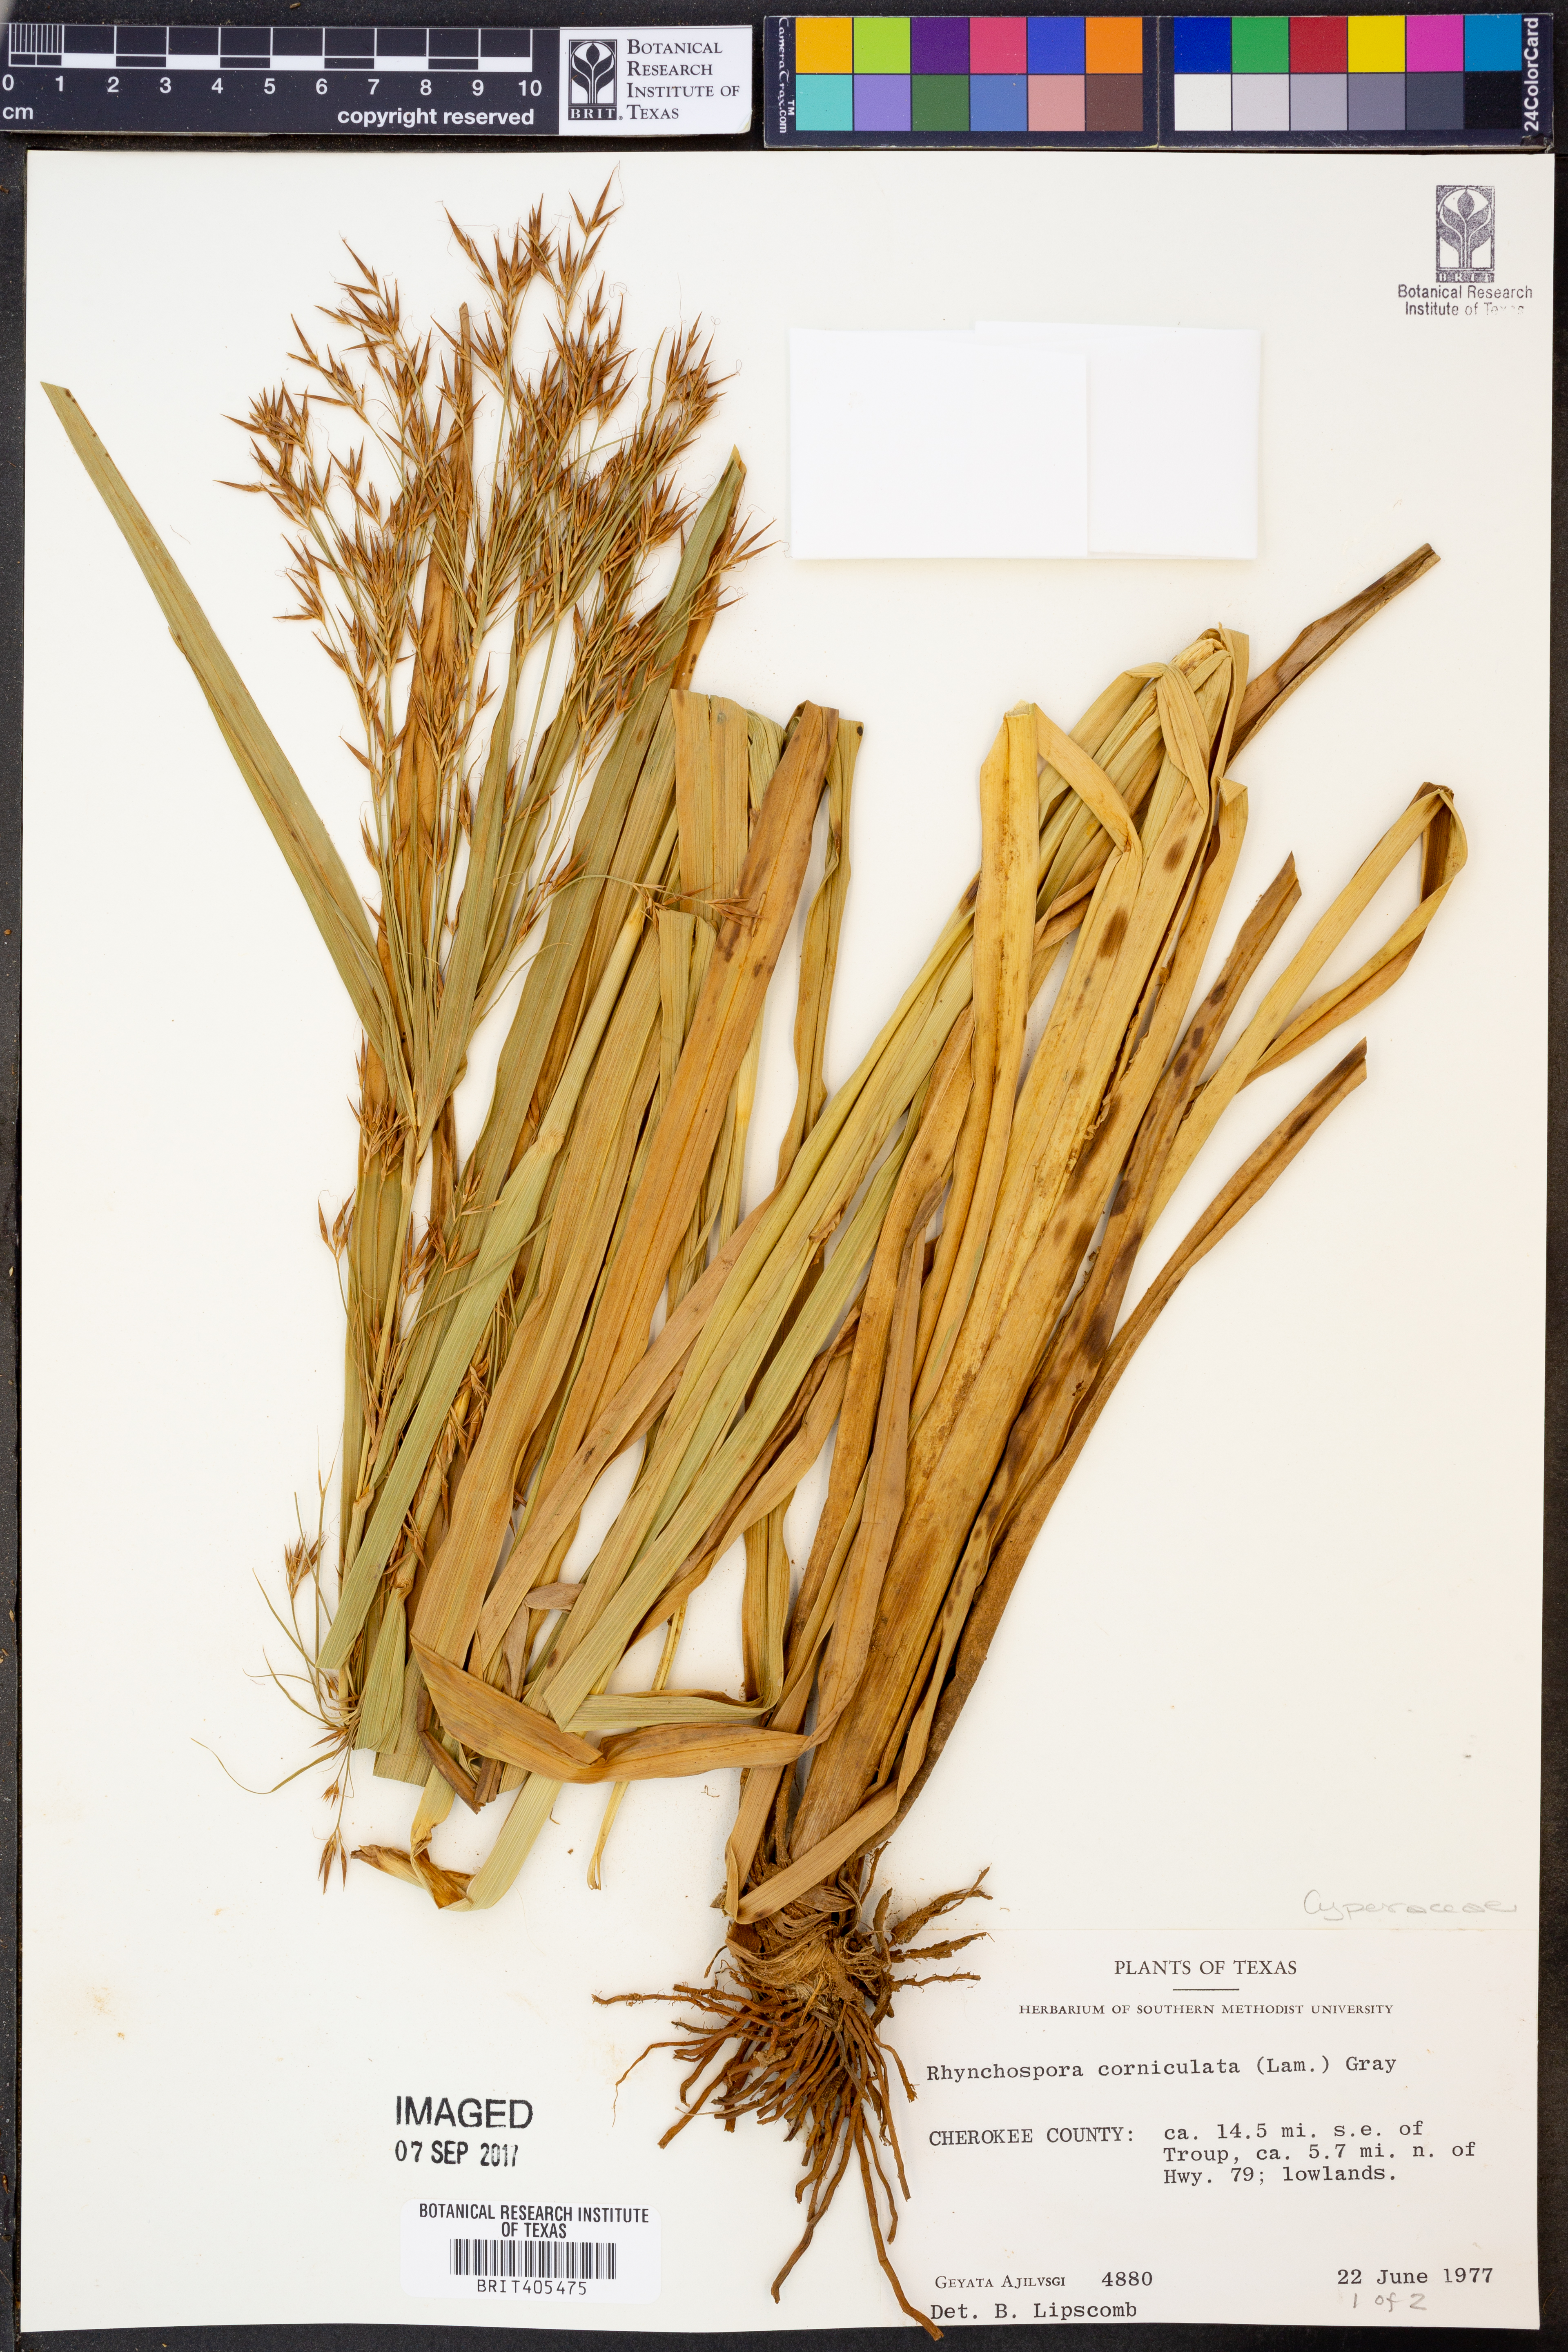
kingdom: Plantae
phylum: Tracheophyta
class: Liliopsida
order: Poales
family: Cyperaceae
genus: Rhynchospora
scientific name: Rhynchospora corniculata
